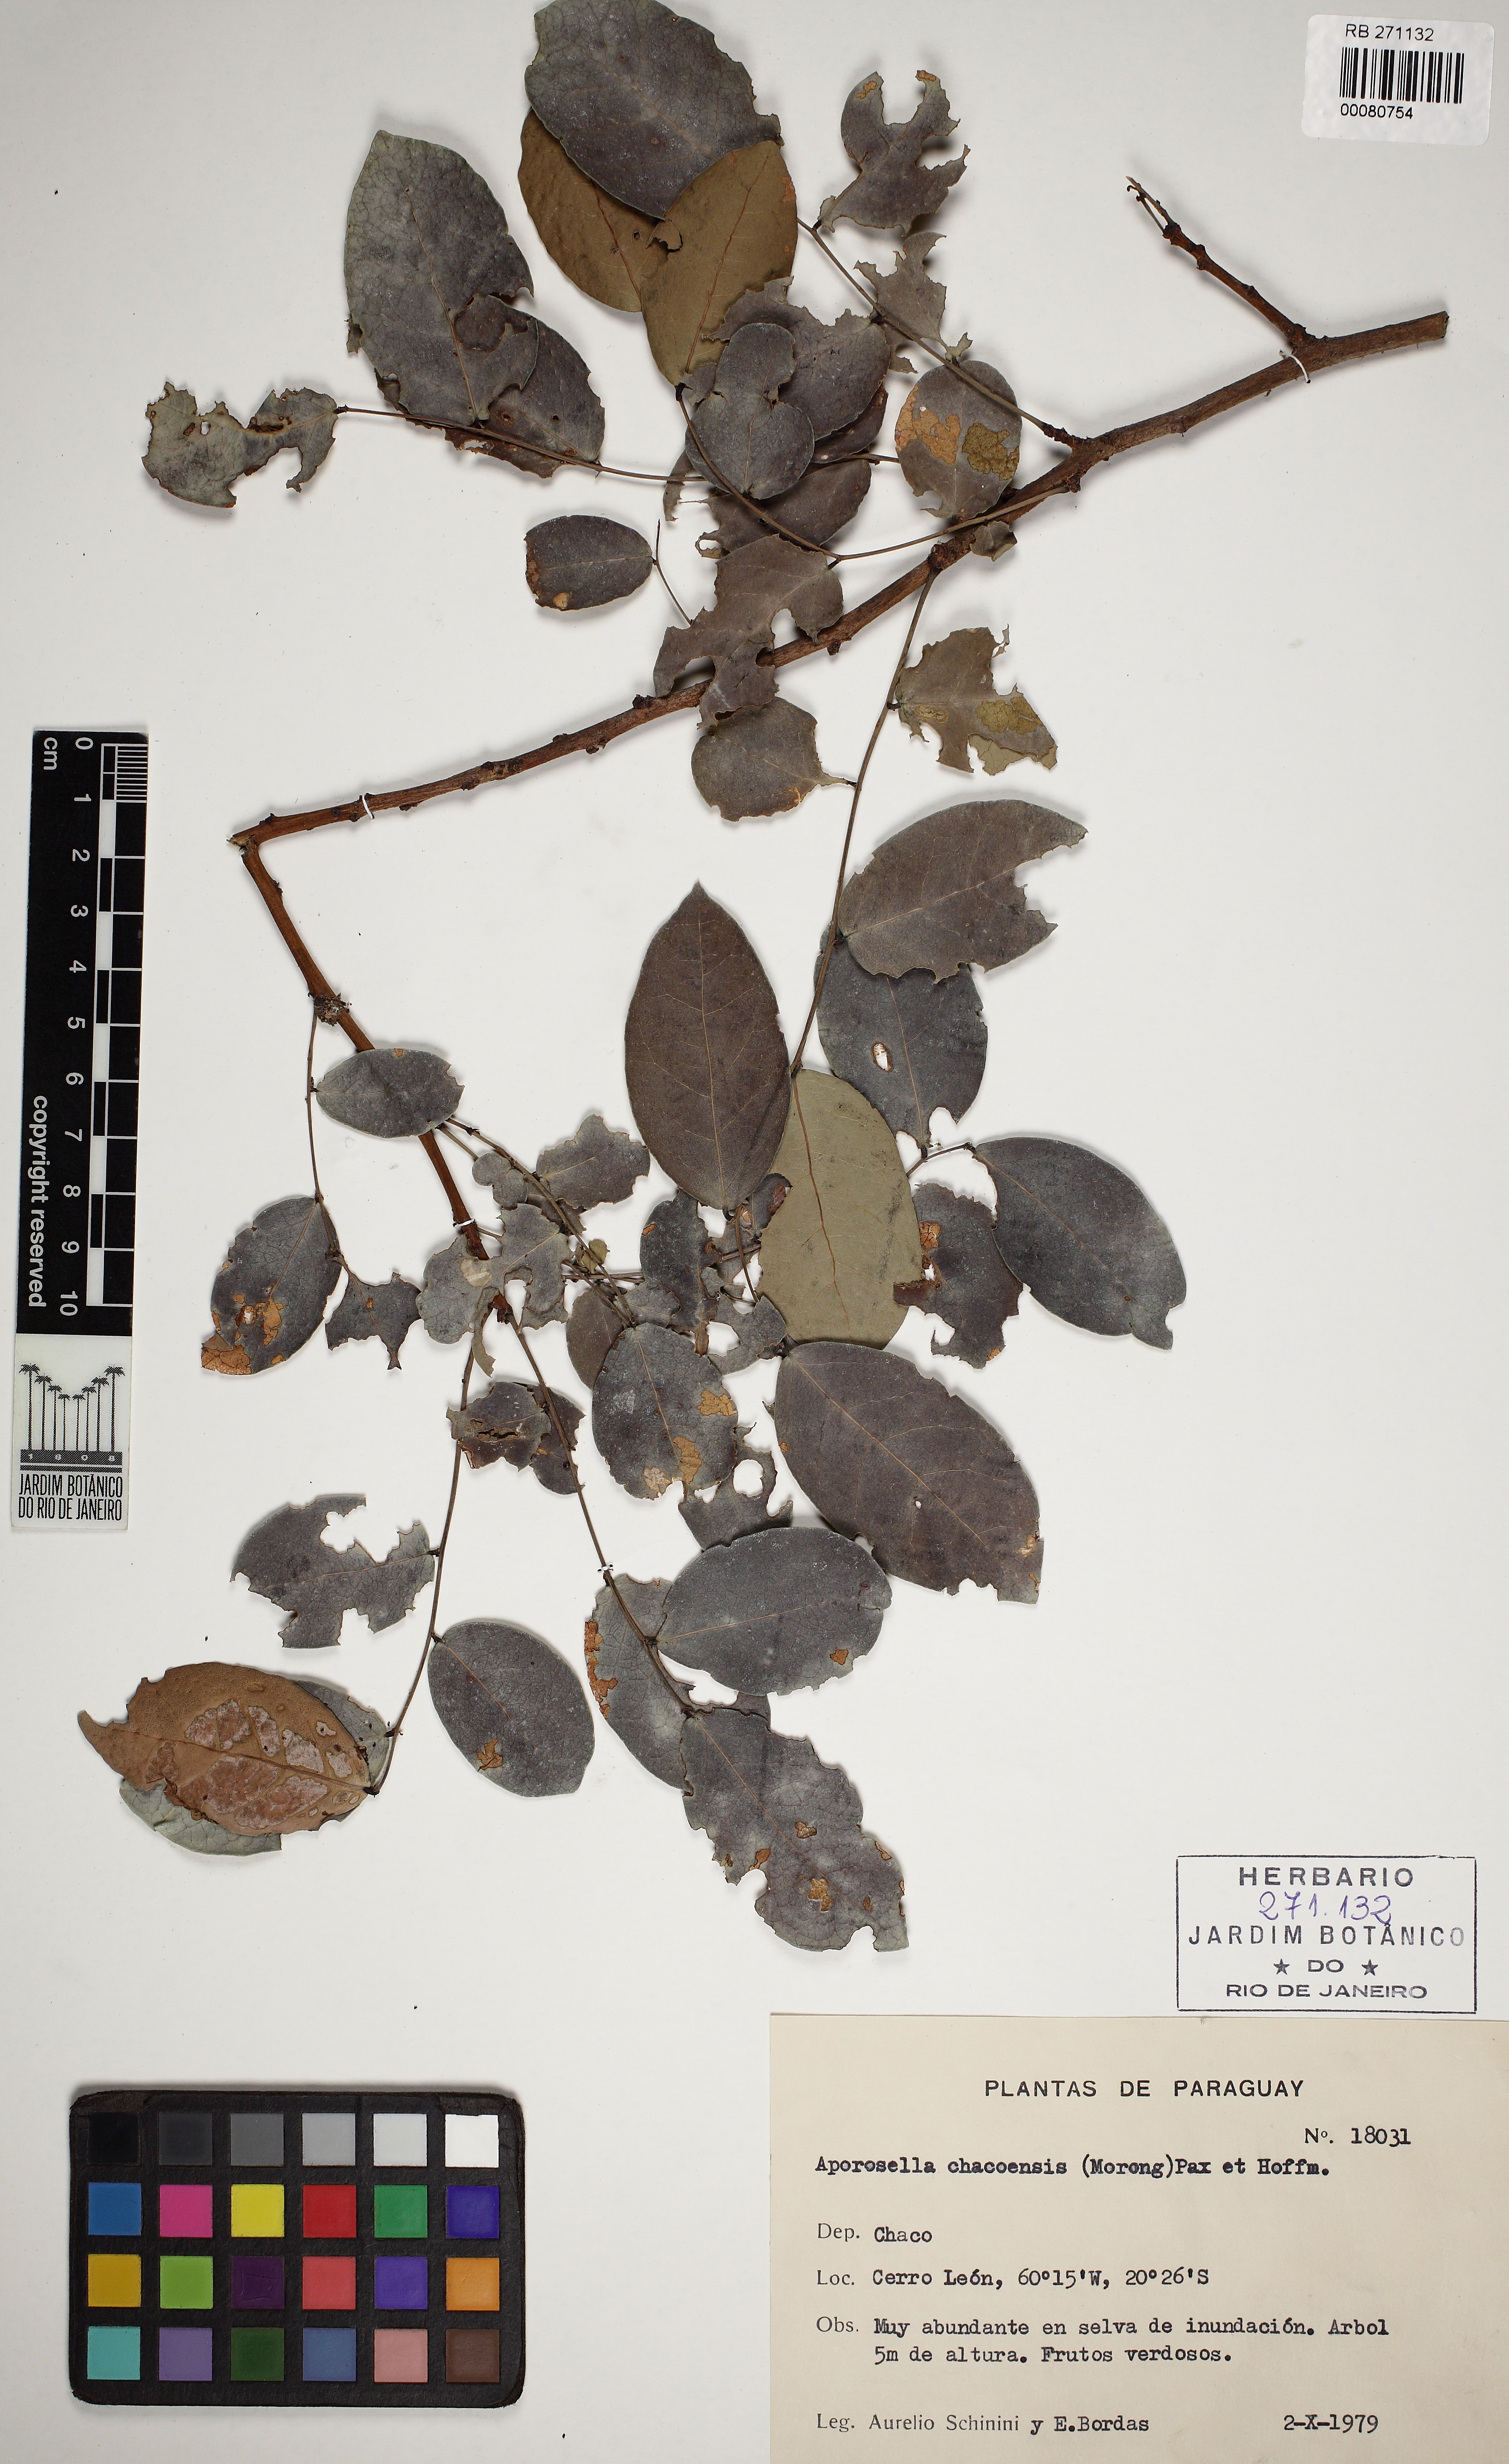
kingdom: Plantae
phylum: Tracheophyta
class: Magnoliopsida
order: Malpighiales
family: Phyllanthaceae
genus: Phyllanthus
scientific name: Phyllanthus chacoensis
